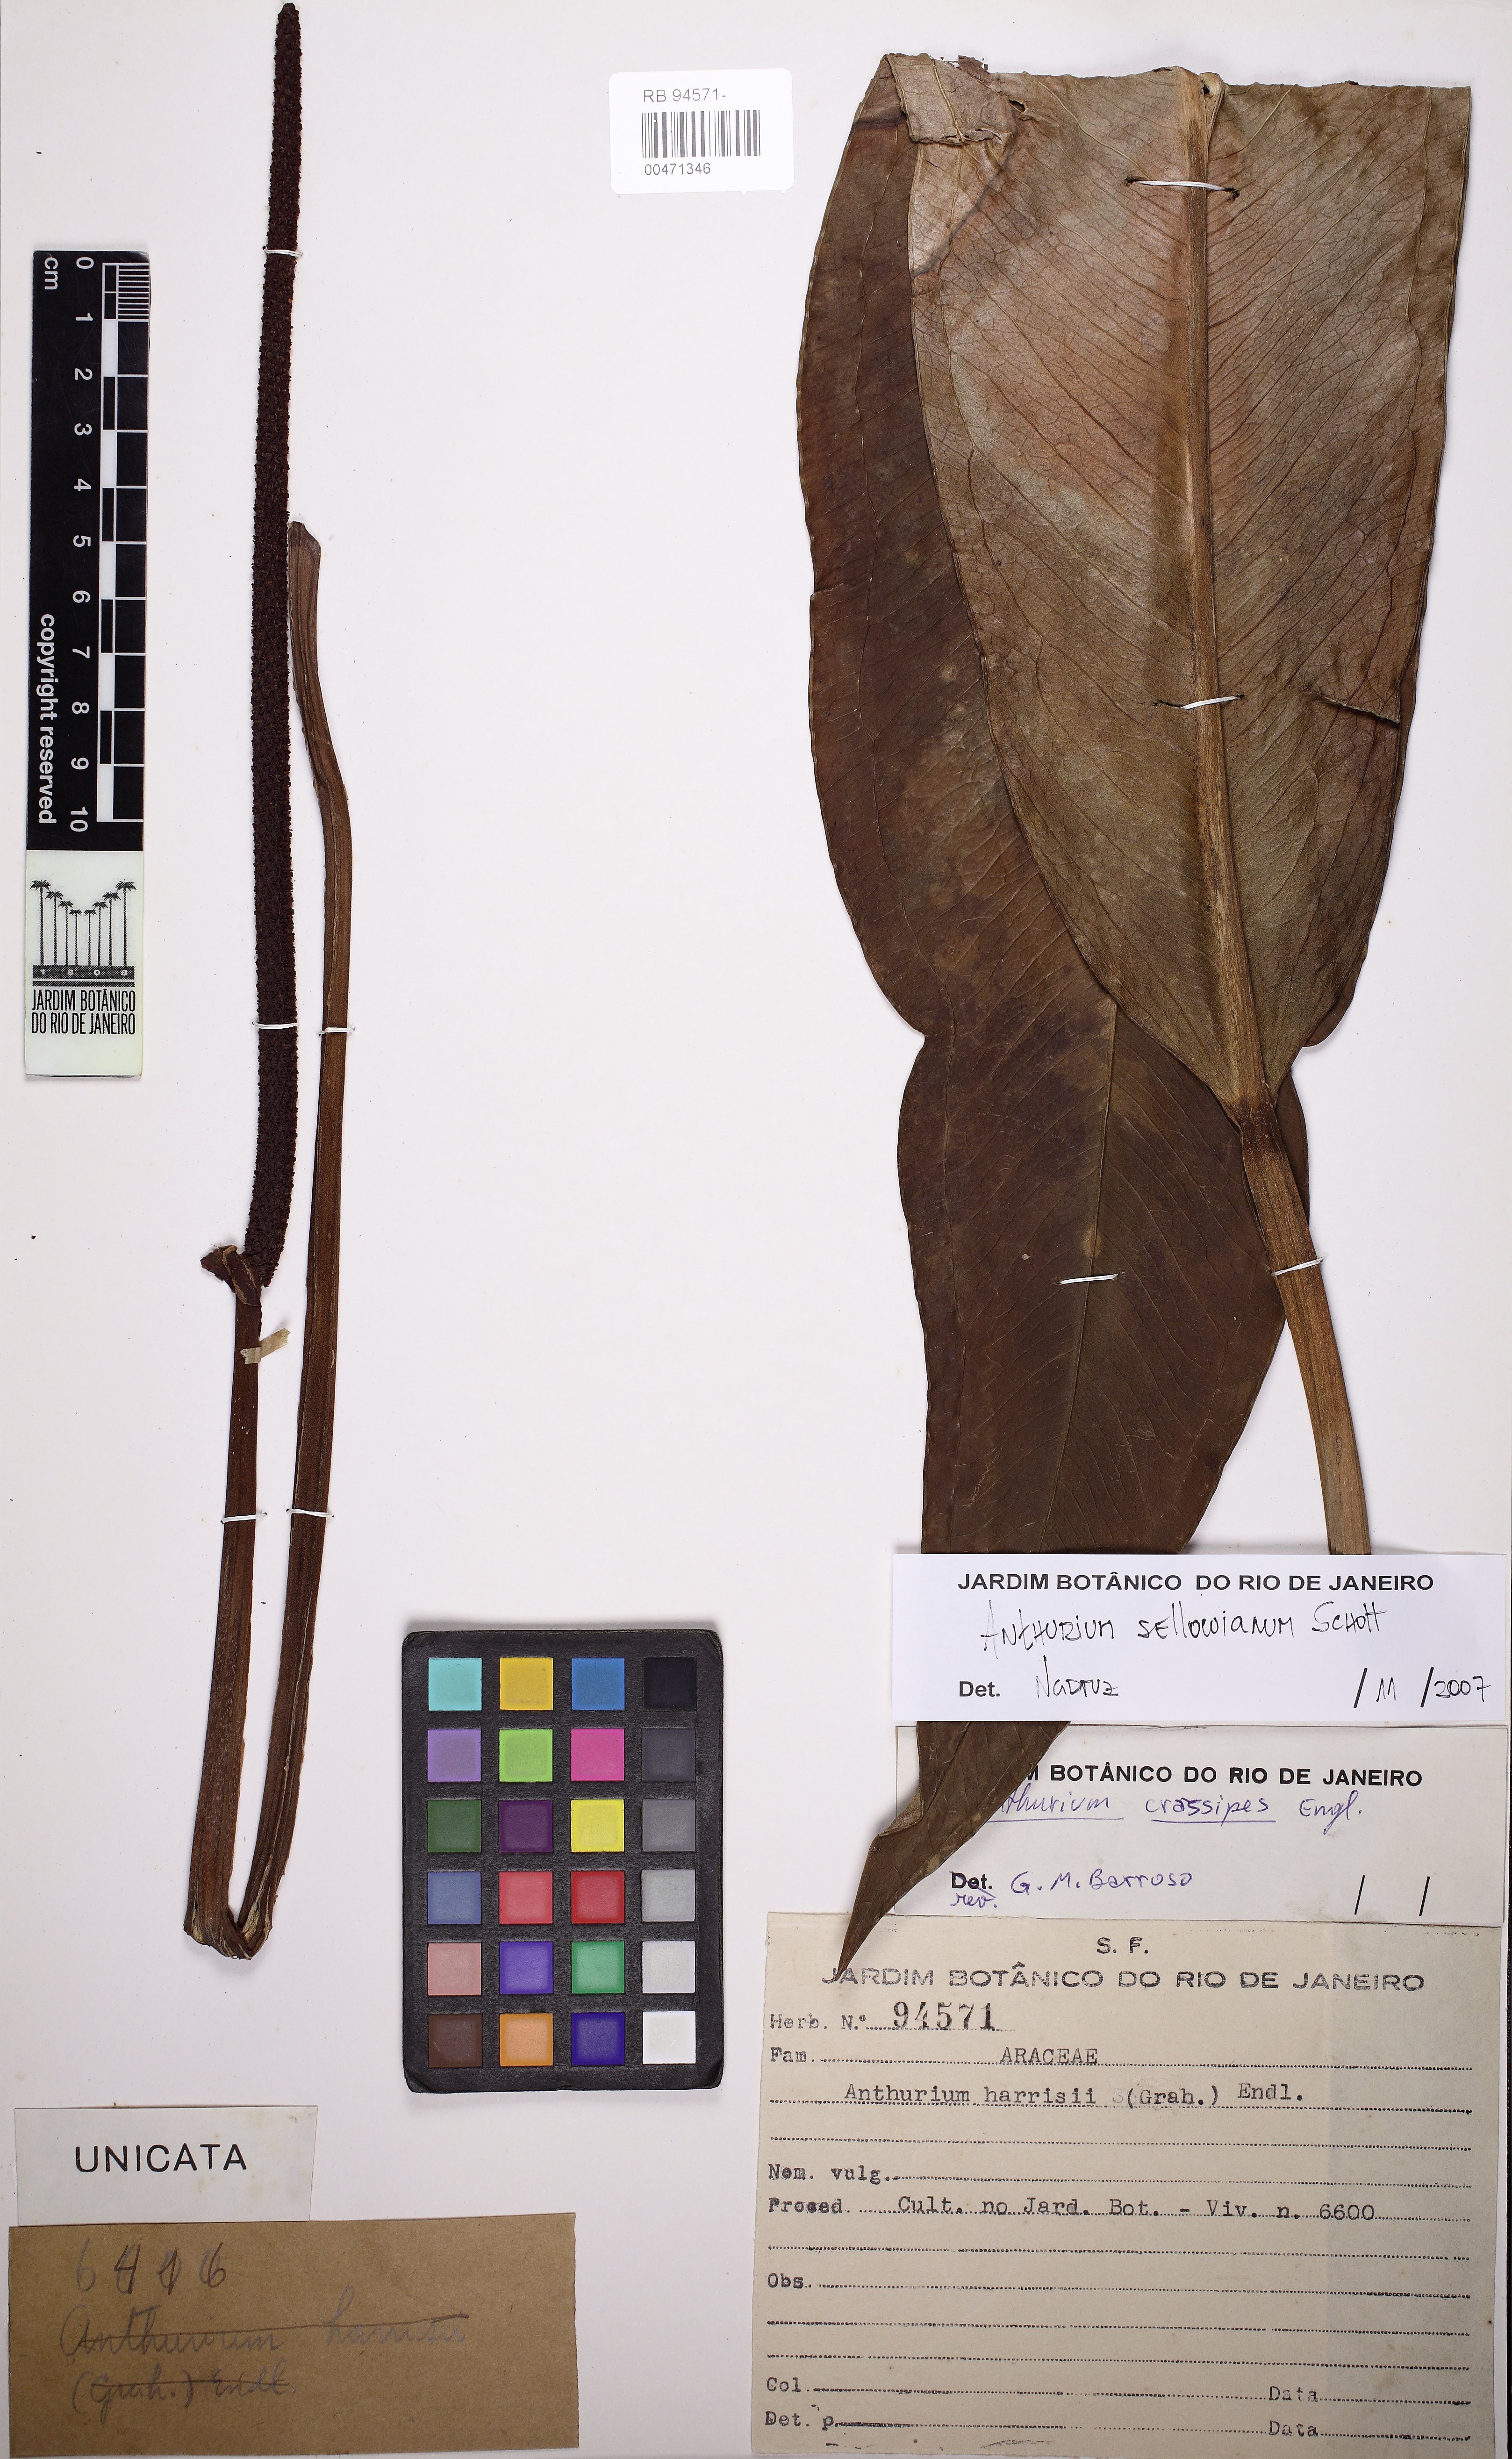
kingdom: Plantae
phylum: Tracheophyta
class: Liliopsida
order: Alismatales
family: Araceae
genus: Anthurium
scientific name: Anthurium sellowianum
